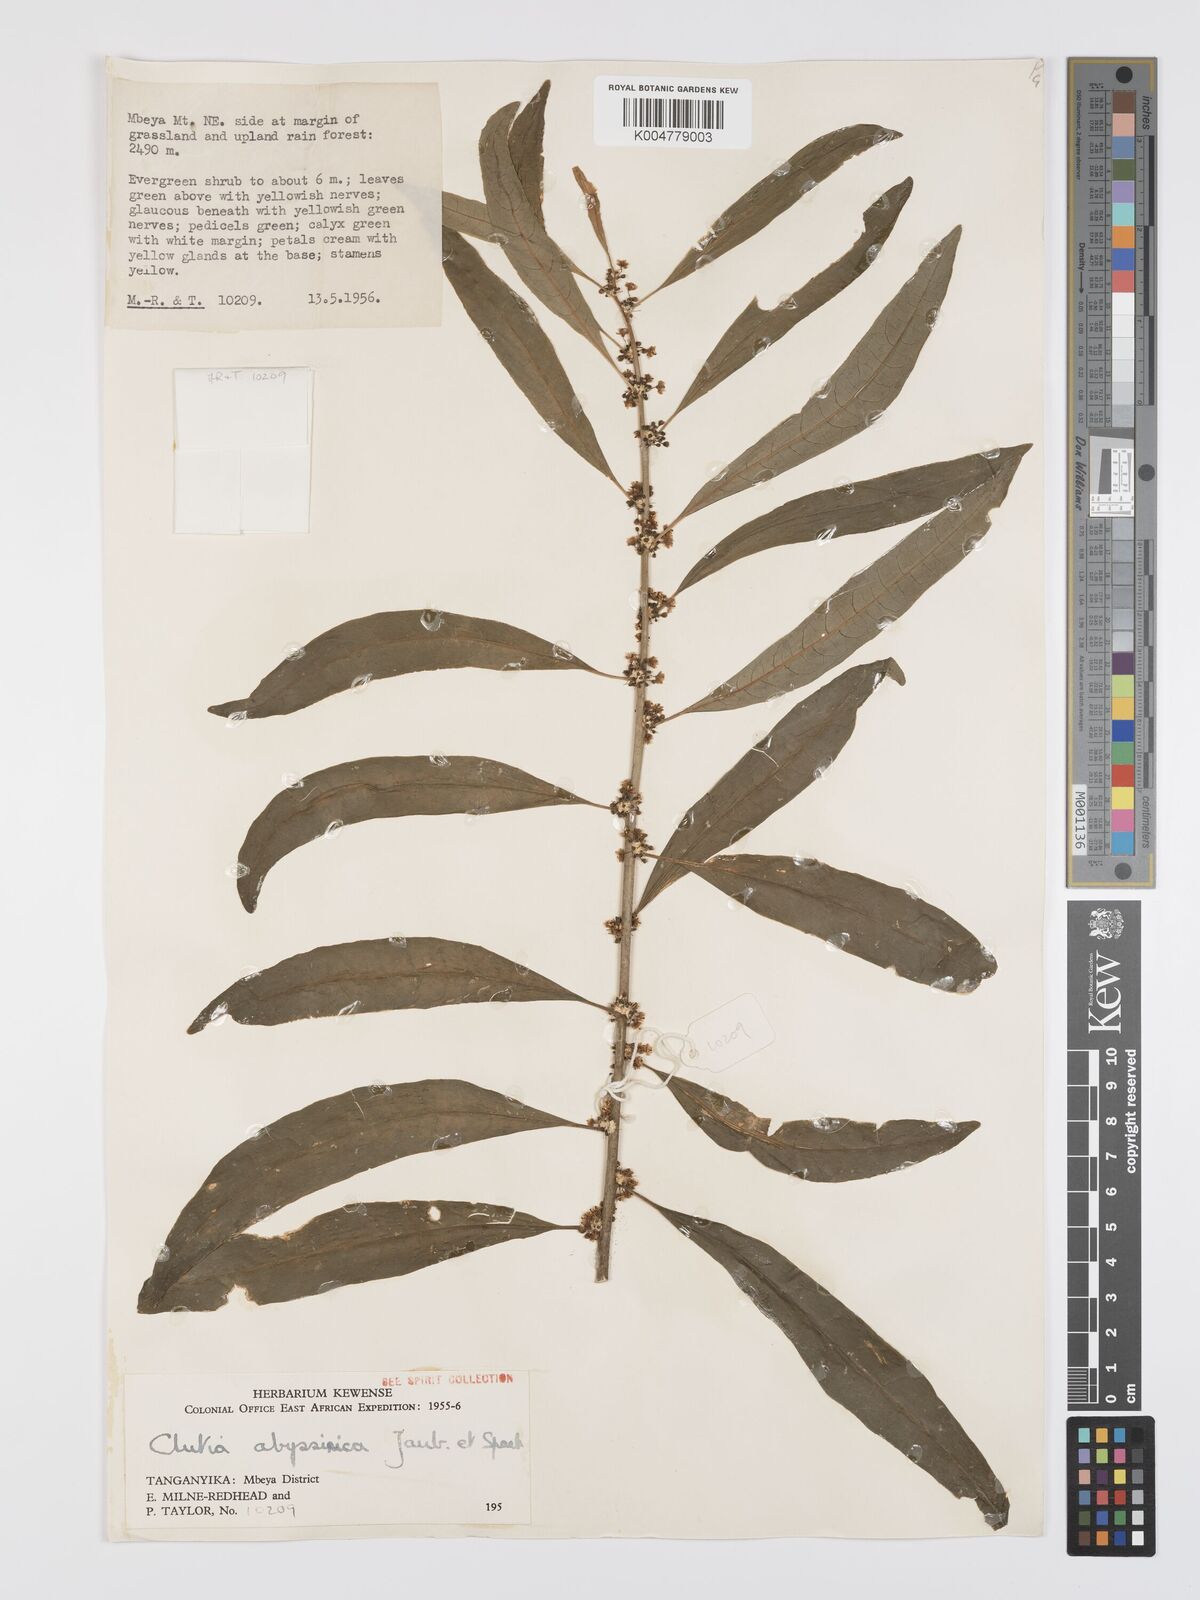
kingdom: Plantae
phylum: Tracheophyta
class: Magnoliopsida
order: Malpighiales
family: Peraceae
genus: Clutia
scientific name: Clutia abyssinica
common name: Large lightning bush
